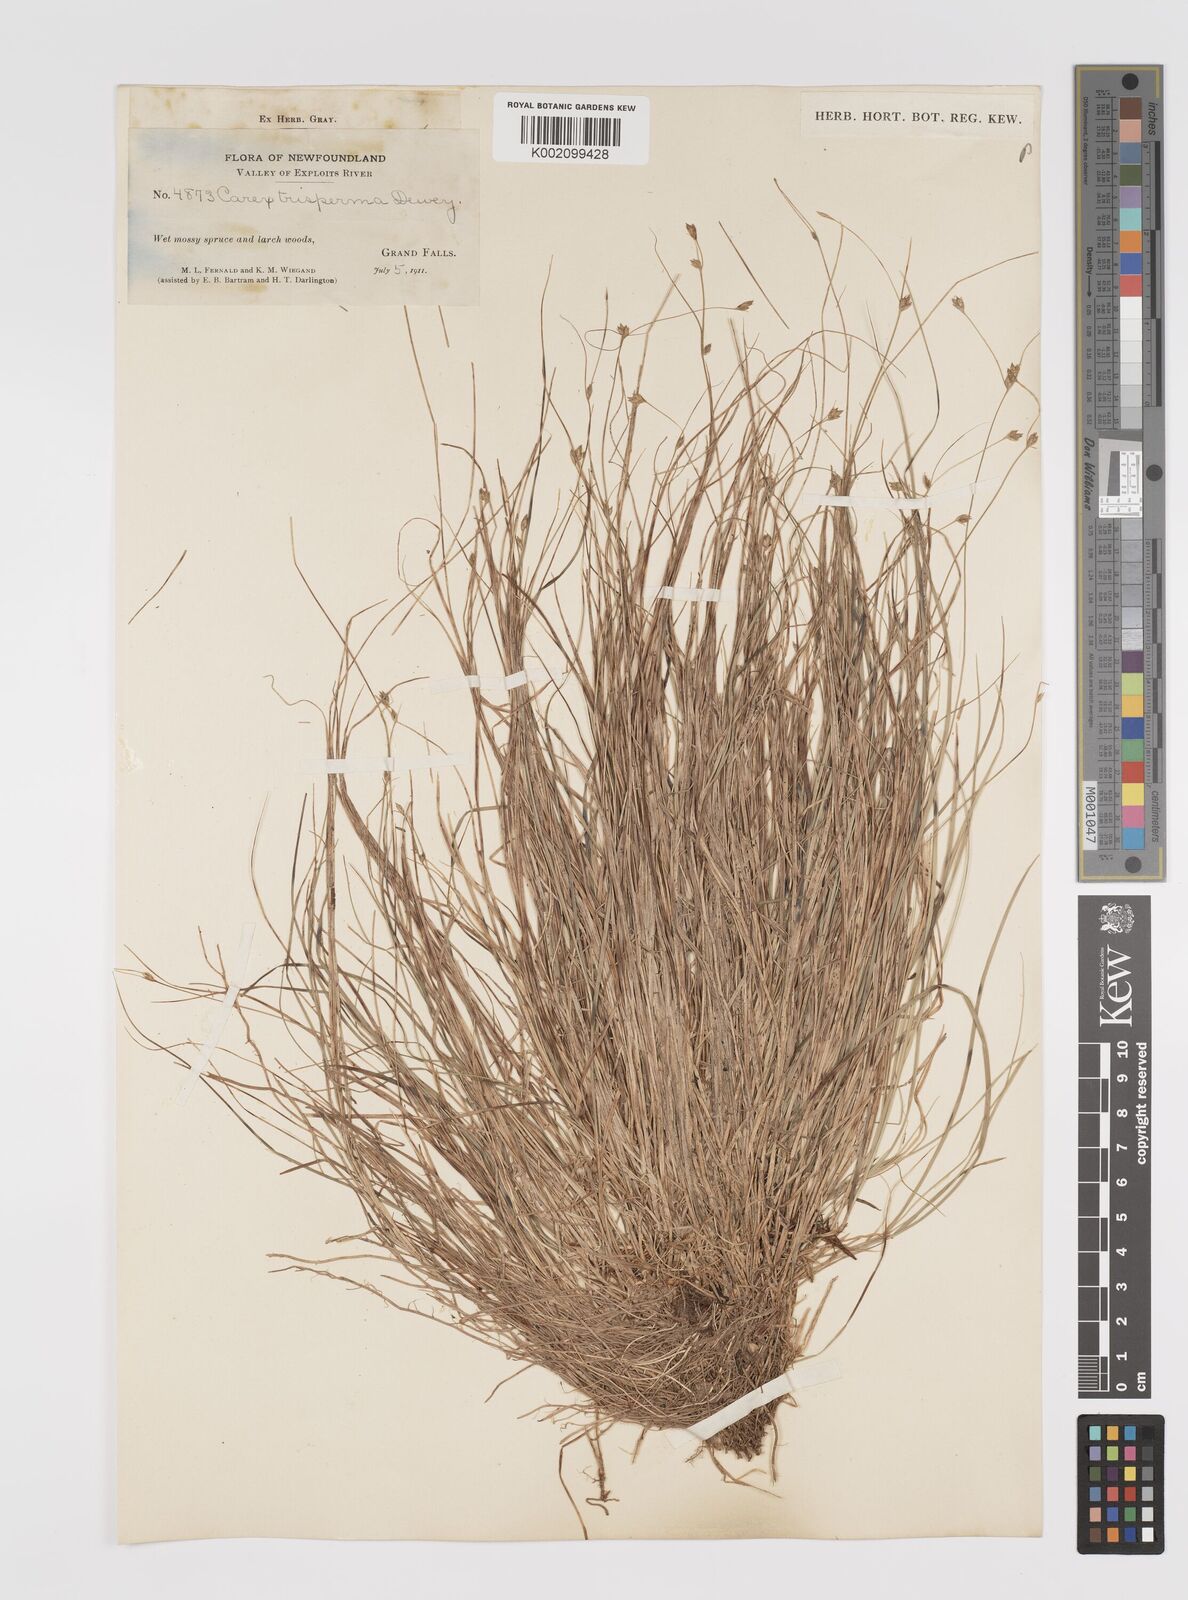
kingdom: Plantae
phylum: Tracheophyta
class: Liliopsida
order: Poales
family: Cyperaceae
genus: Carex
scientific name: Carex trisperma
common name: Three-seeded sedge
